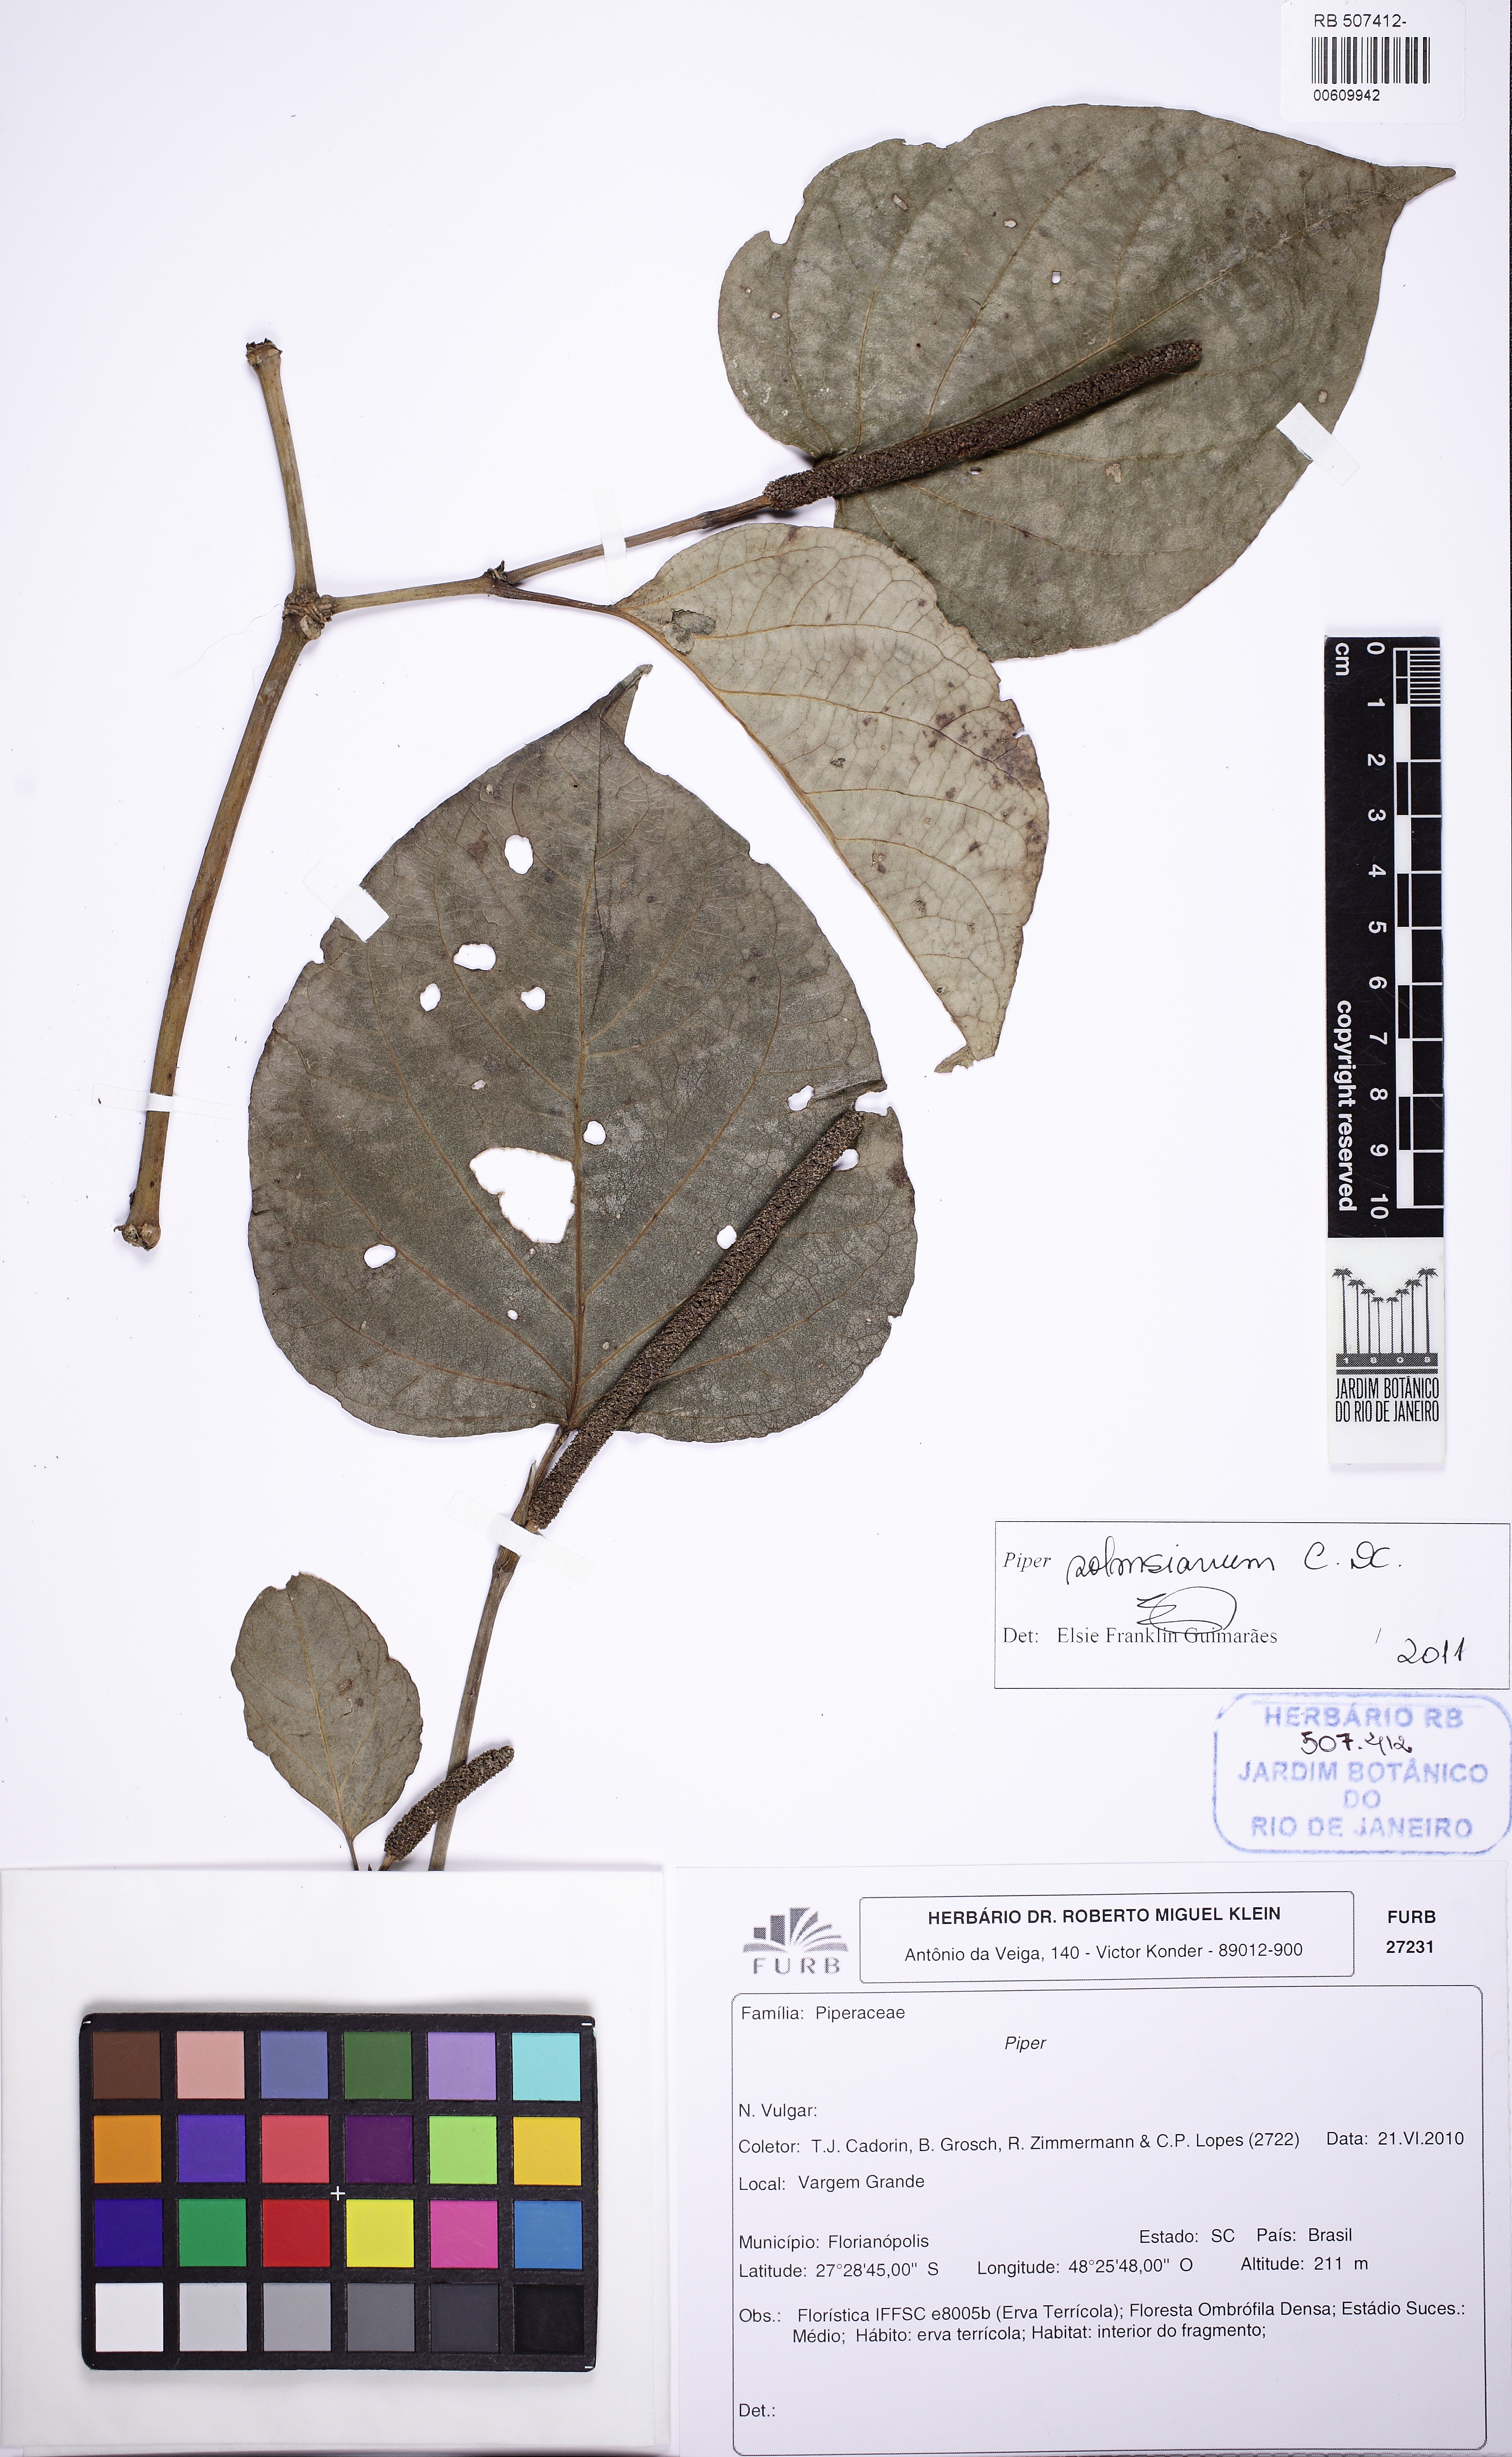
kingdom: Plantae
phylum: Tracheophyta
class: Magnoliopsida
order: Piperales
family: Piperaceae
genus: Piper
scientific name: Piper solmsianum
